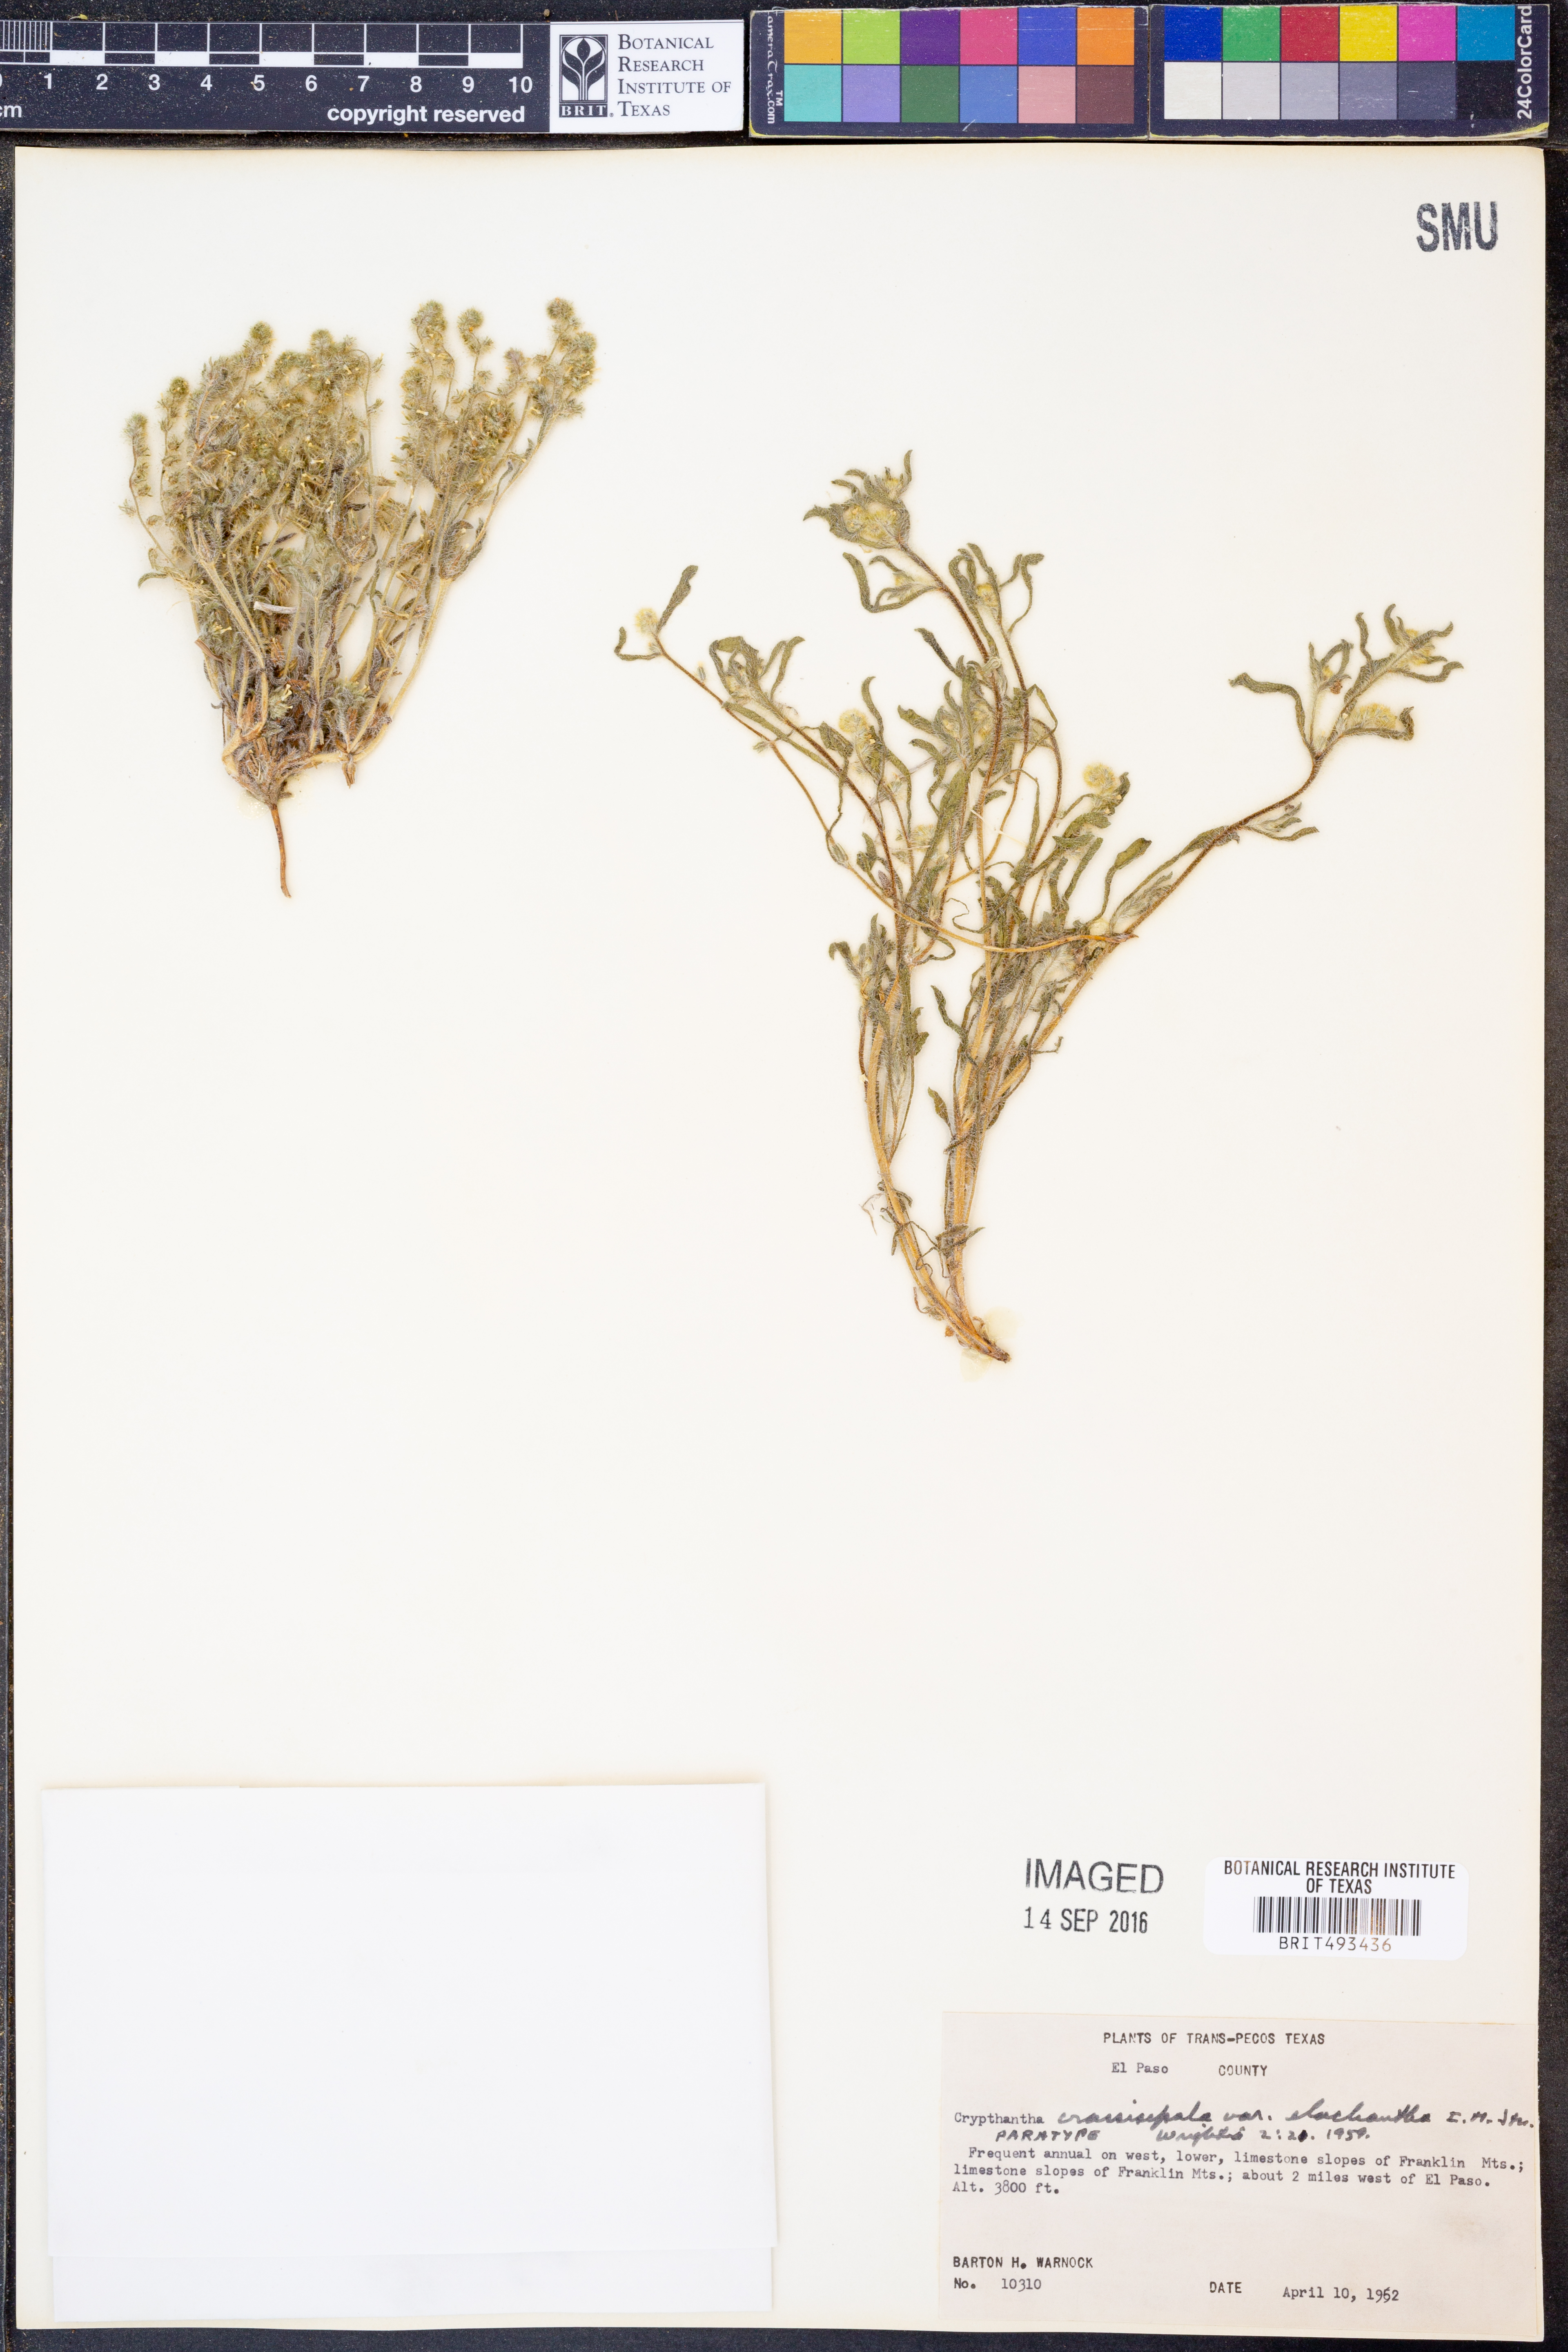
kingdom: Plantae
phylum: Tracheophyta
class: Magnoliopsida
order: Boraginales
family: Boraginaceae
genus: Cryptantha
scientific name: Cryptantha crassisepala
